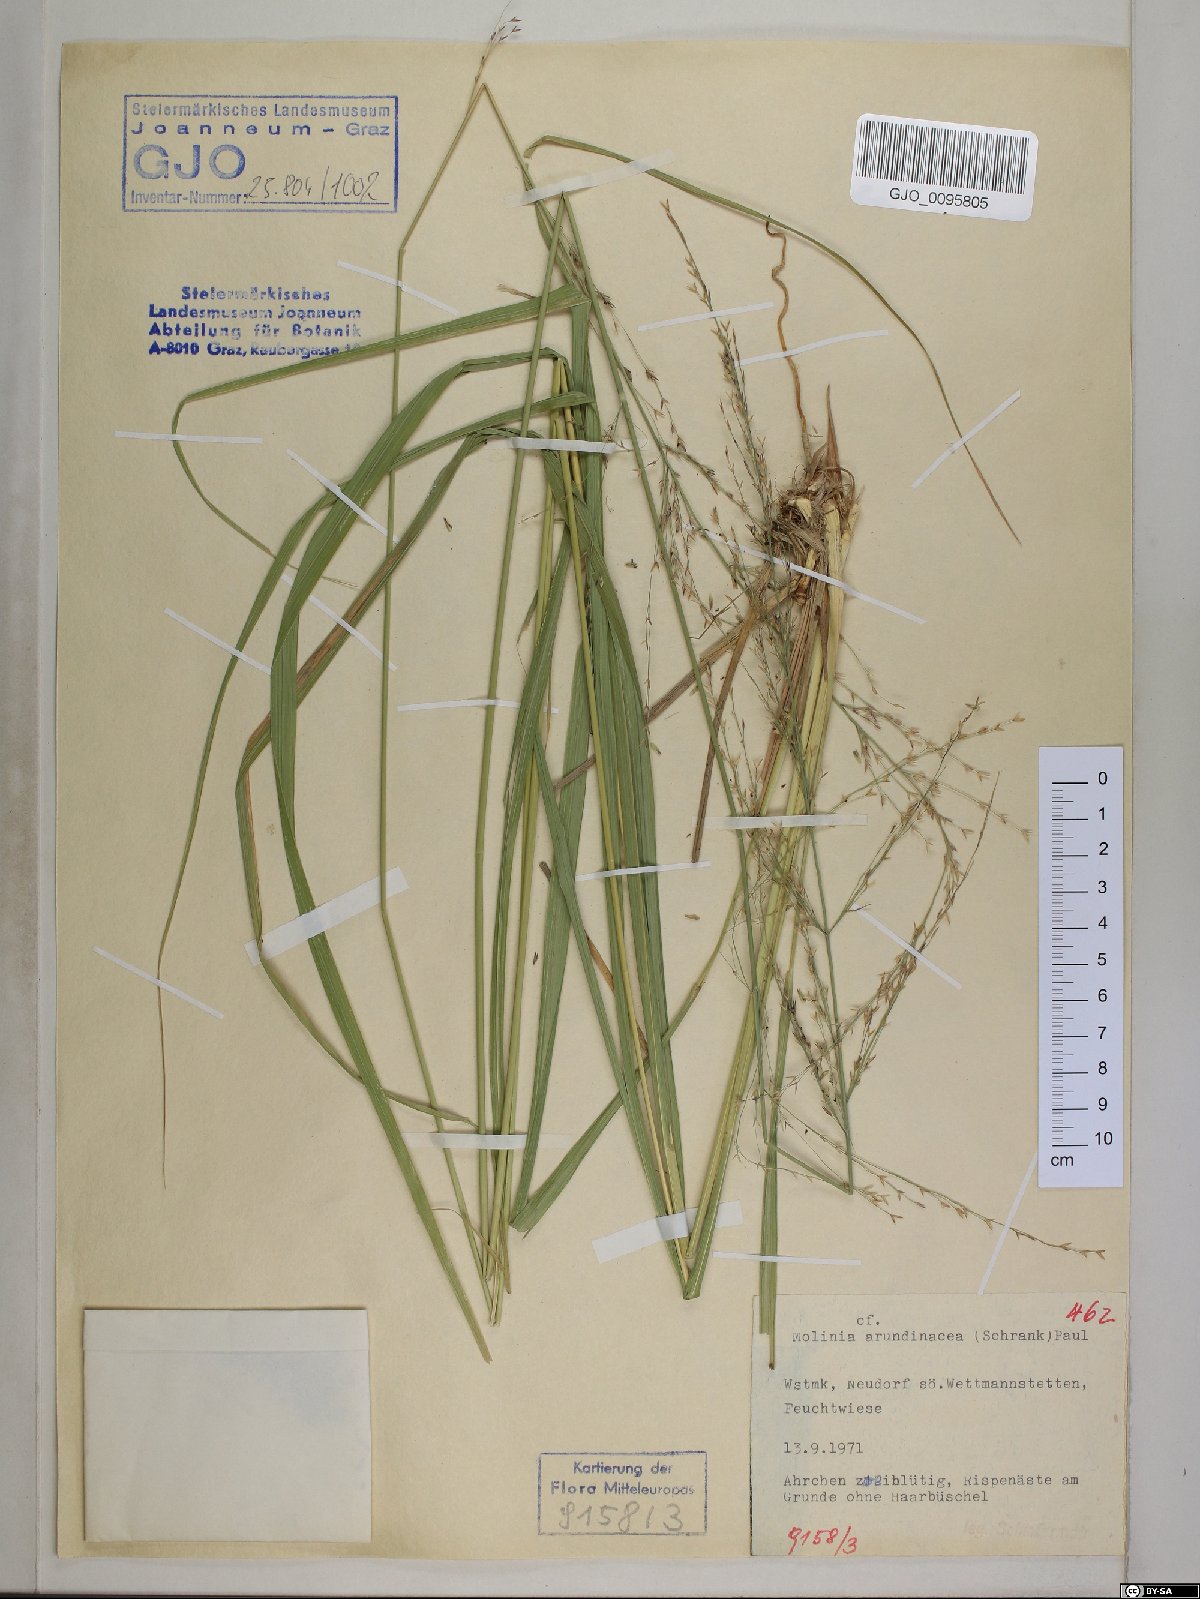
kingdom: Plantae
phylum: Tracheophyta
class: Liliopsida
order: Poales
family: Poaceae
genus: Molinia
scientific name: Molinia arundinacea
